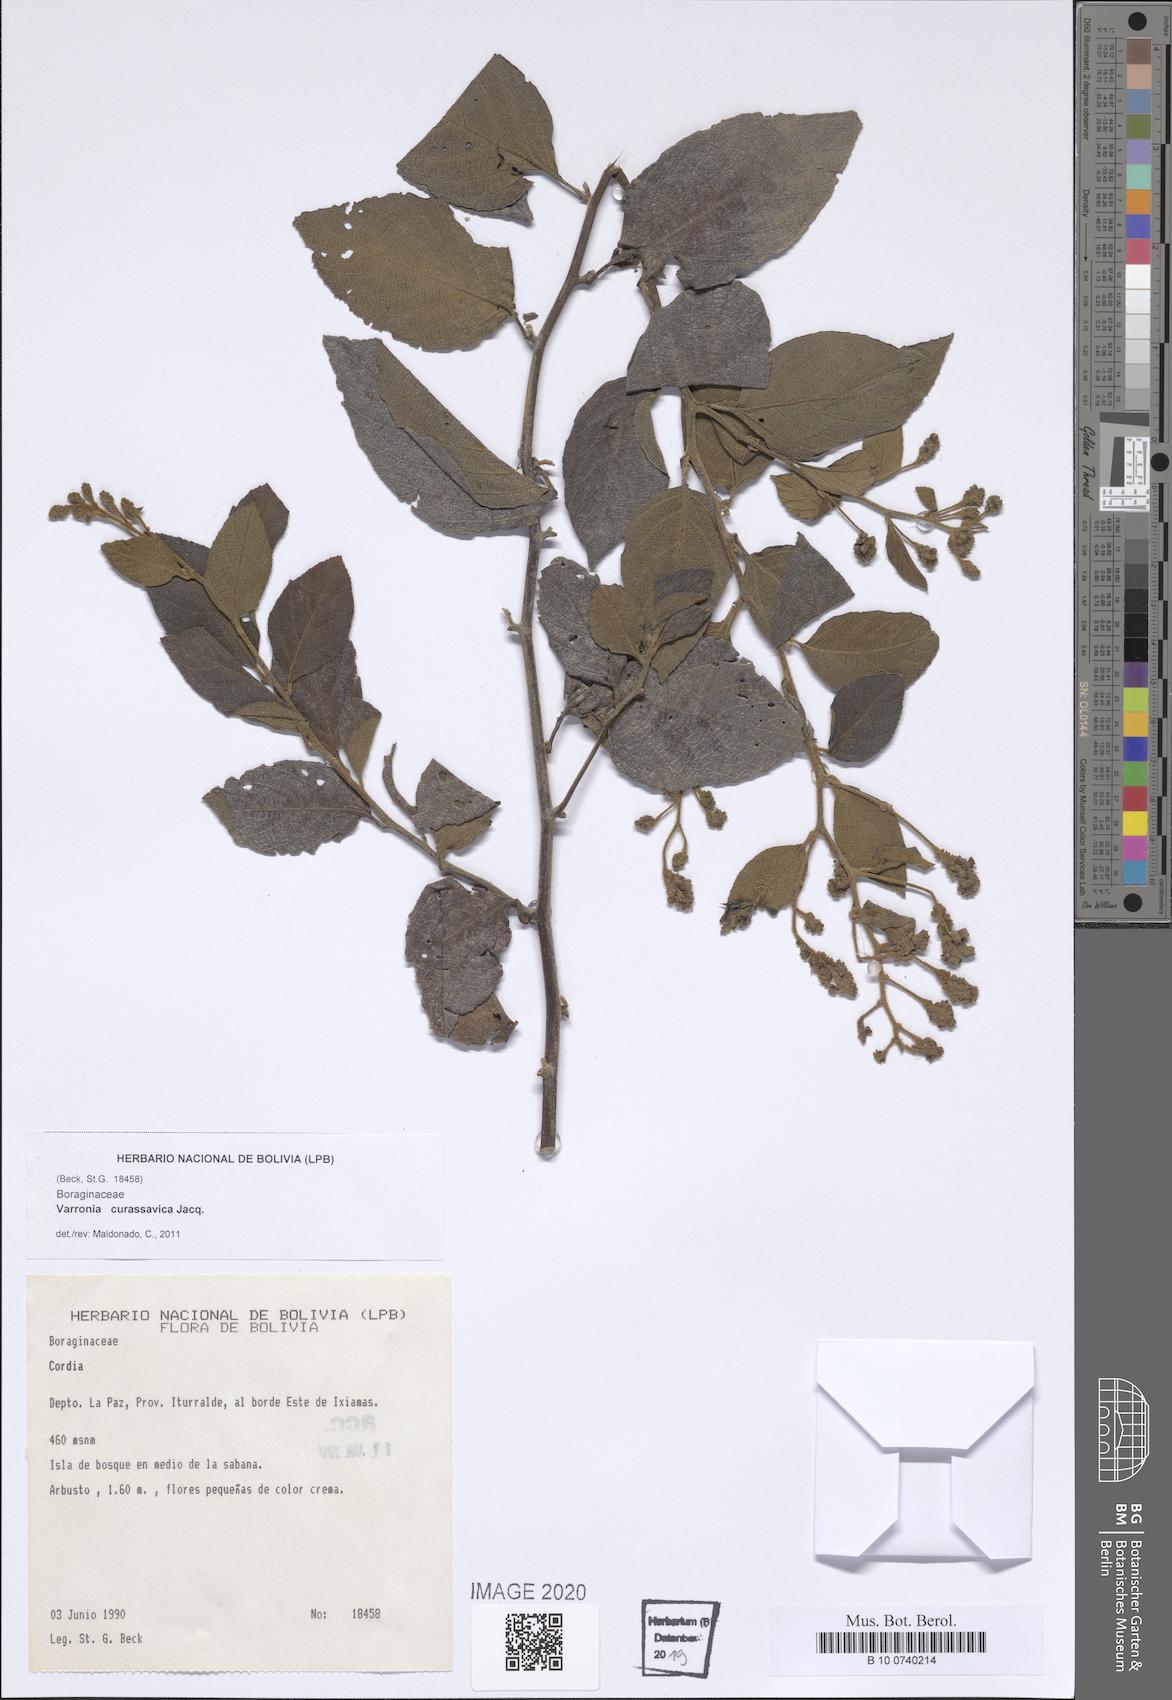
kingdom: Plantae
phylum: Tracheophyta
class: Magnoliopsida
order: Boraginales
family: Cordiaceae
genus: Varronia
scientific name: Varronia curassavica
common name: Black sage
